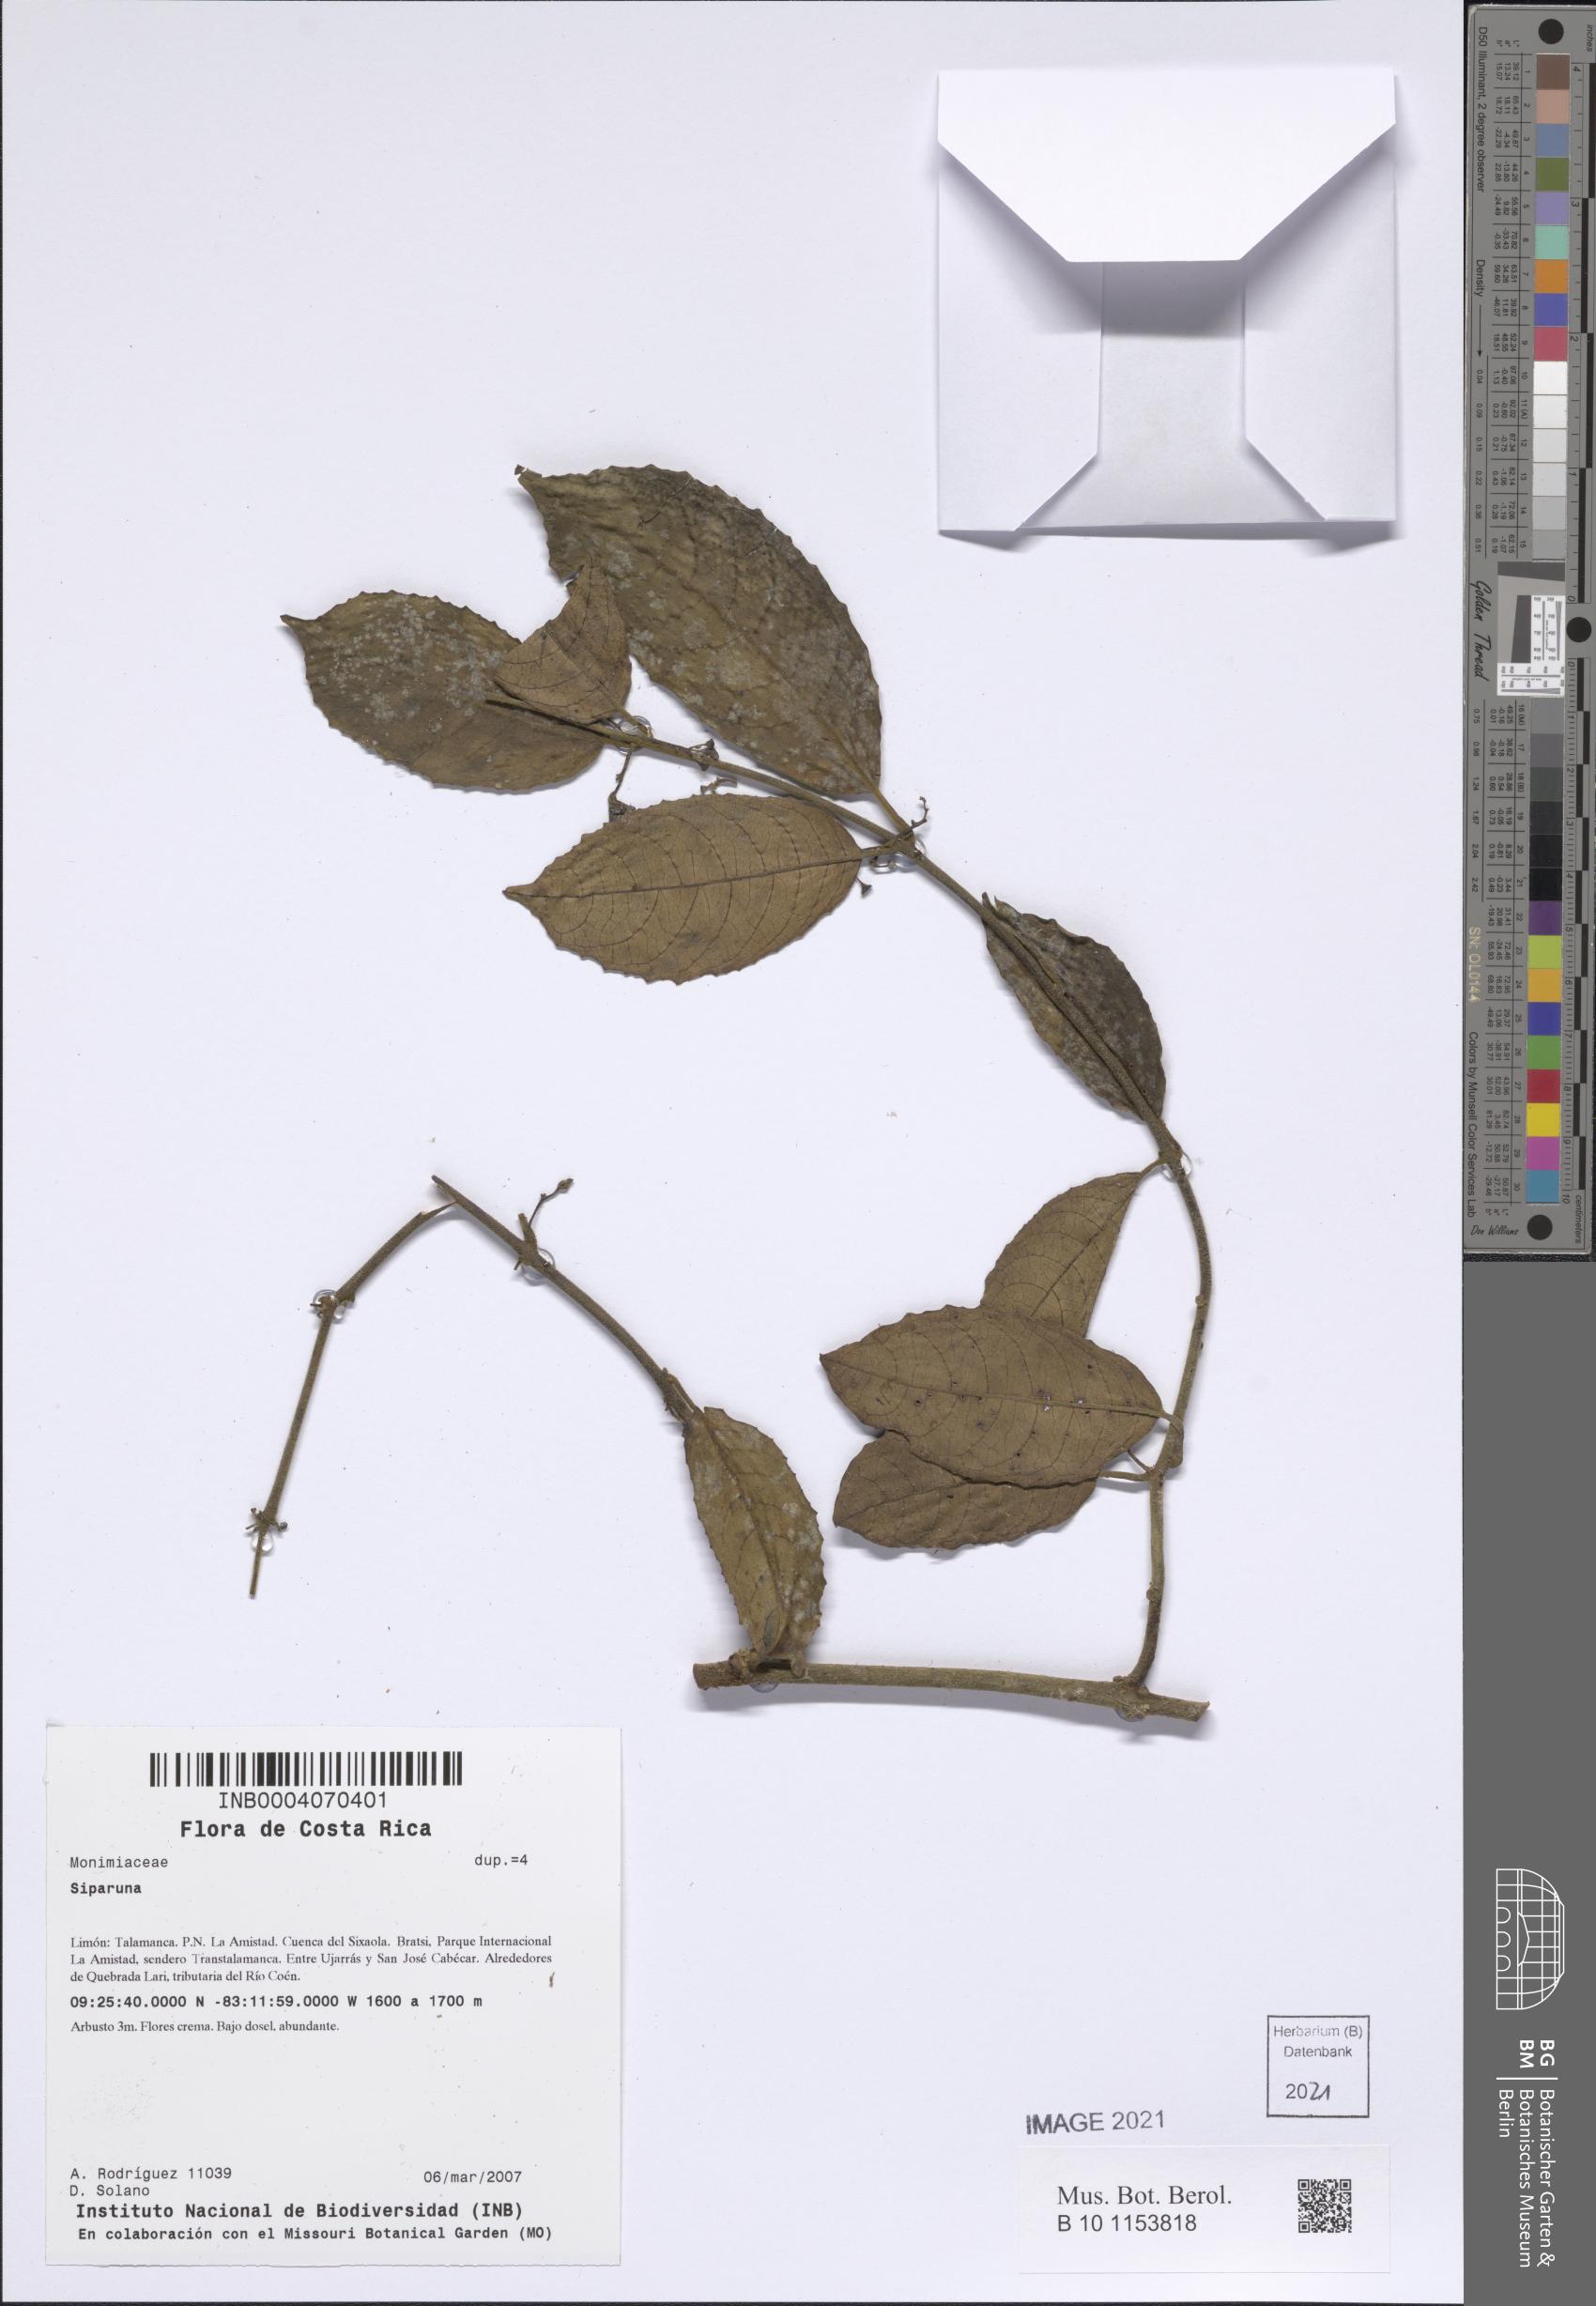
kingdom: Plantae
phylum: Tracheophyta
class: Magnoliopsida
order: Laurales
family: Siparunaceae
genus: Siparuna
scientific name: Siparuna
